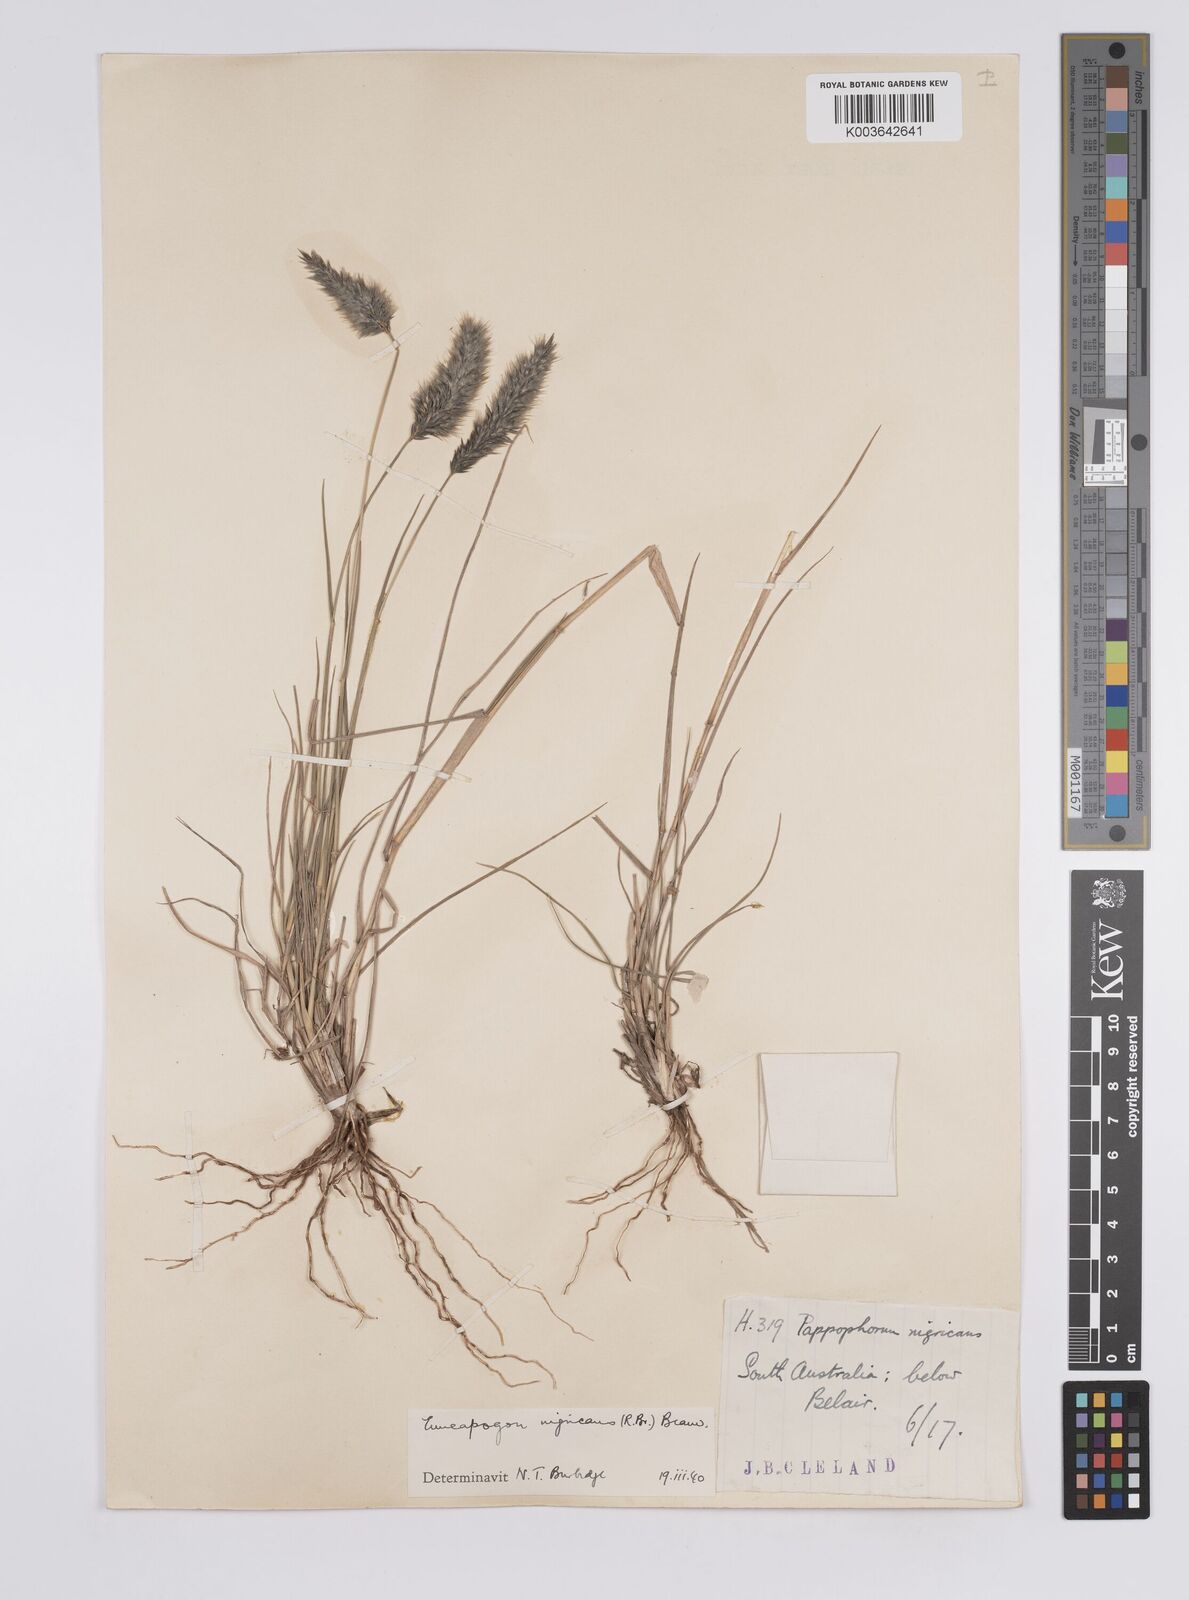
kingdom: Plantae
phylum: Tracheophyta
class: Liliopsida
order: Poales
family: Poaceae
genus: Enneapogon
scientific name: Enneapogon nigricans
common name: Pappus grass
